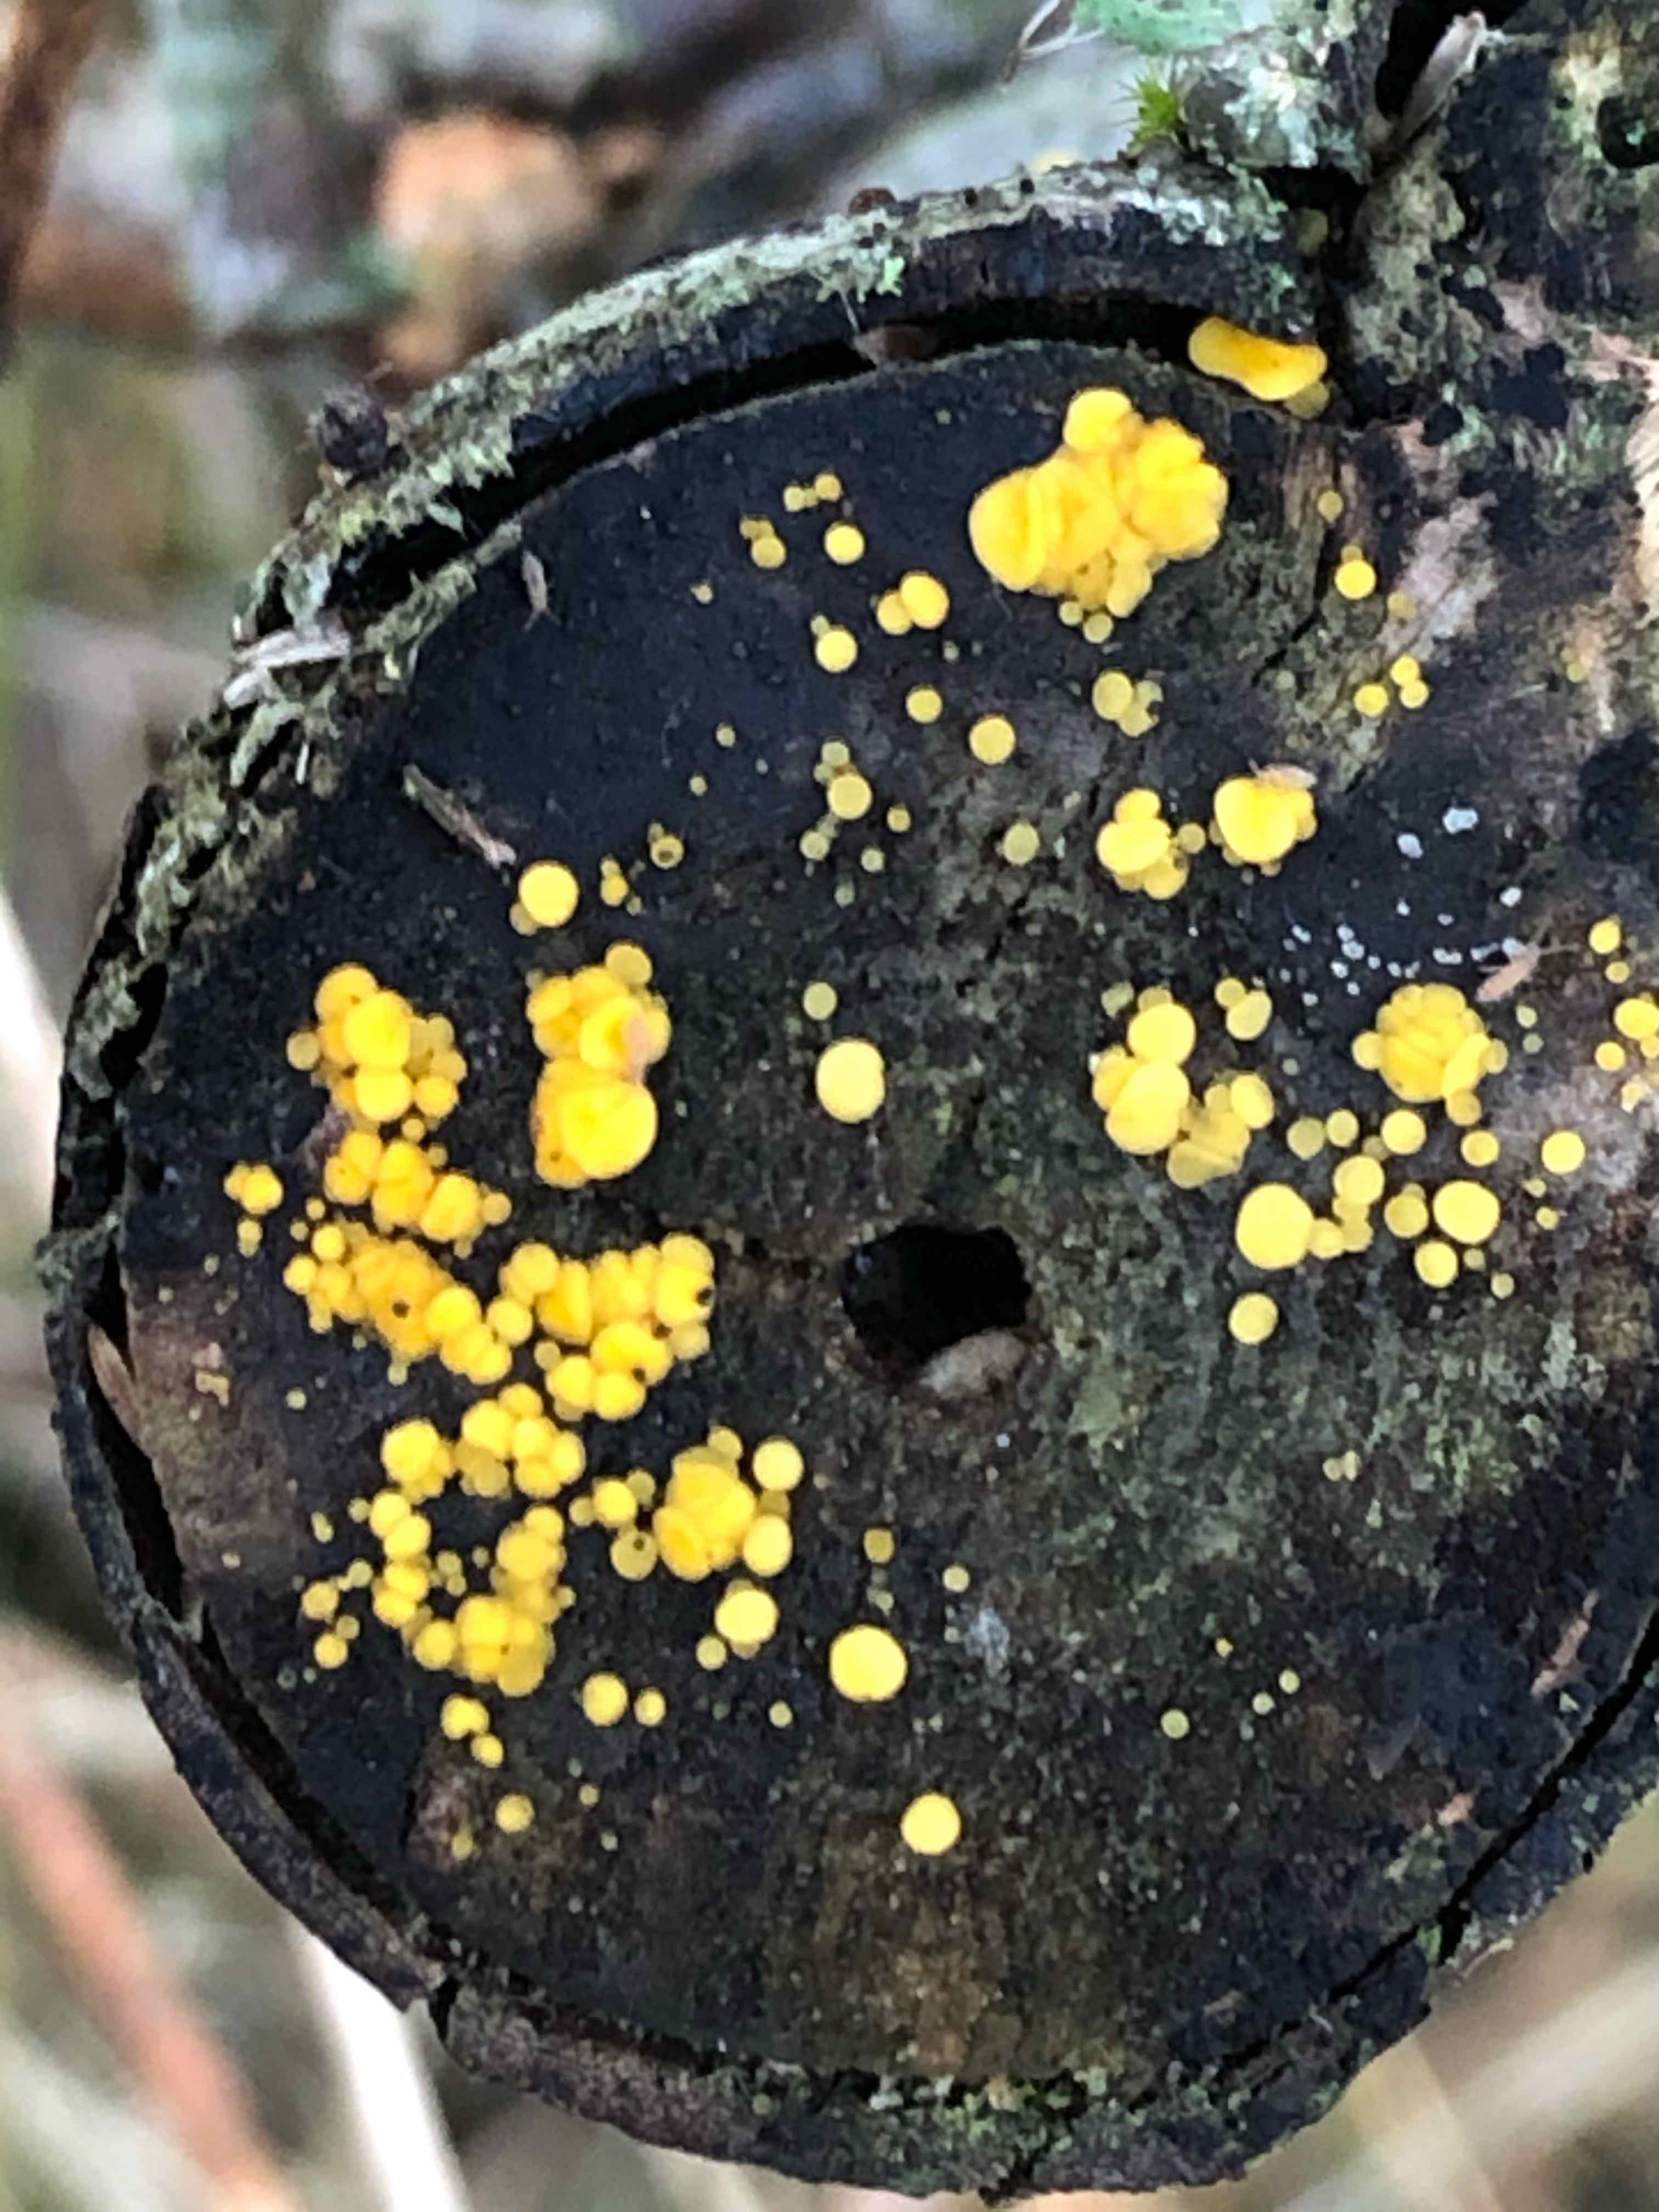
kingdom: Fungi
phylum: Ascomycota
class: Leotiomycetes
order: Helotiales
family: Pezizellaceae
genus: Calycina
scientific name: Calycina citrina
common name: almindelig gulskive
